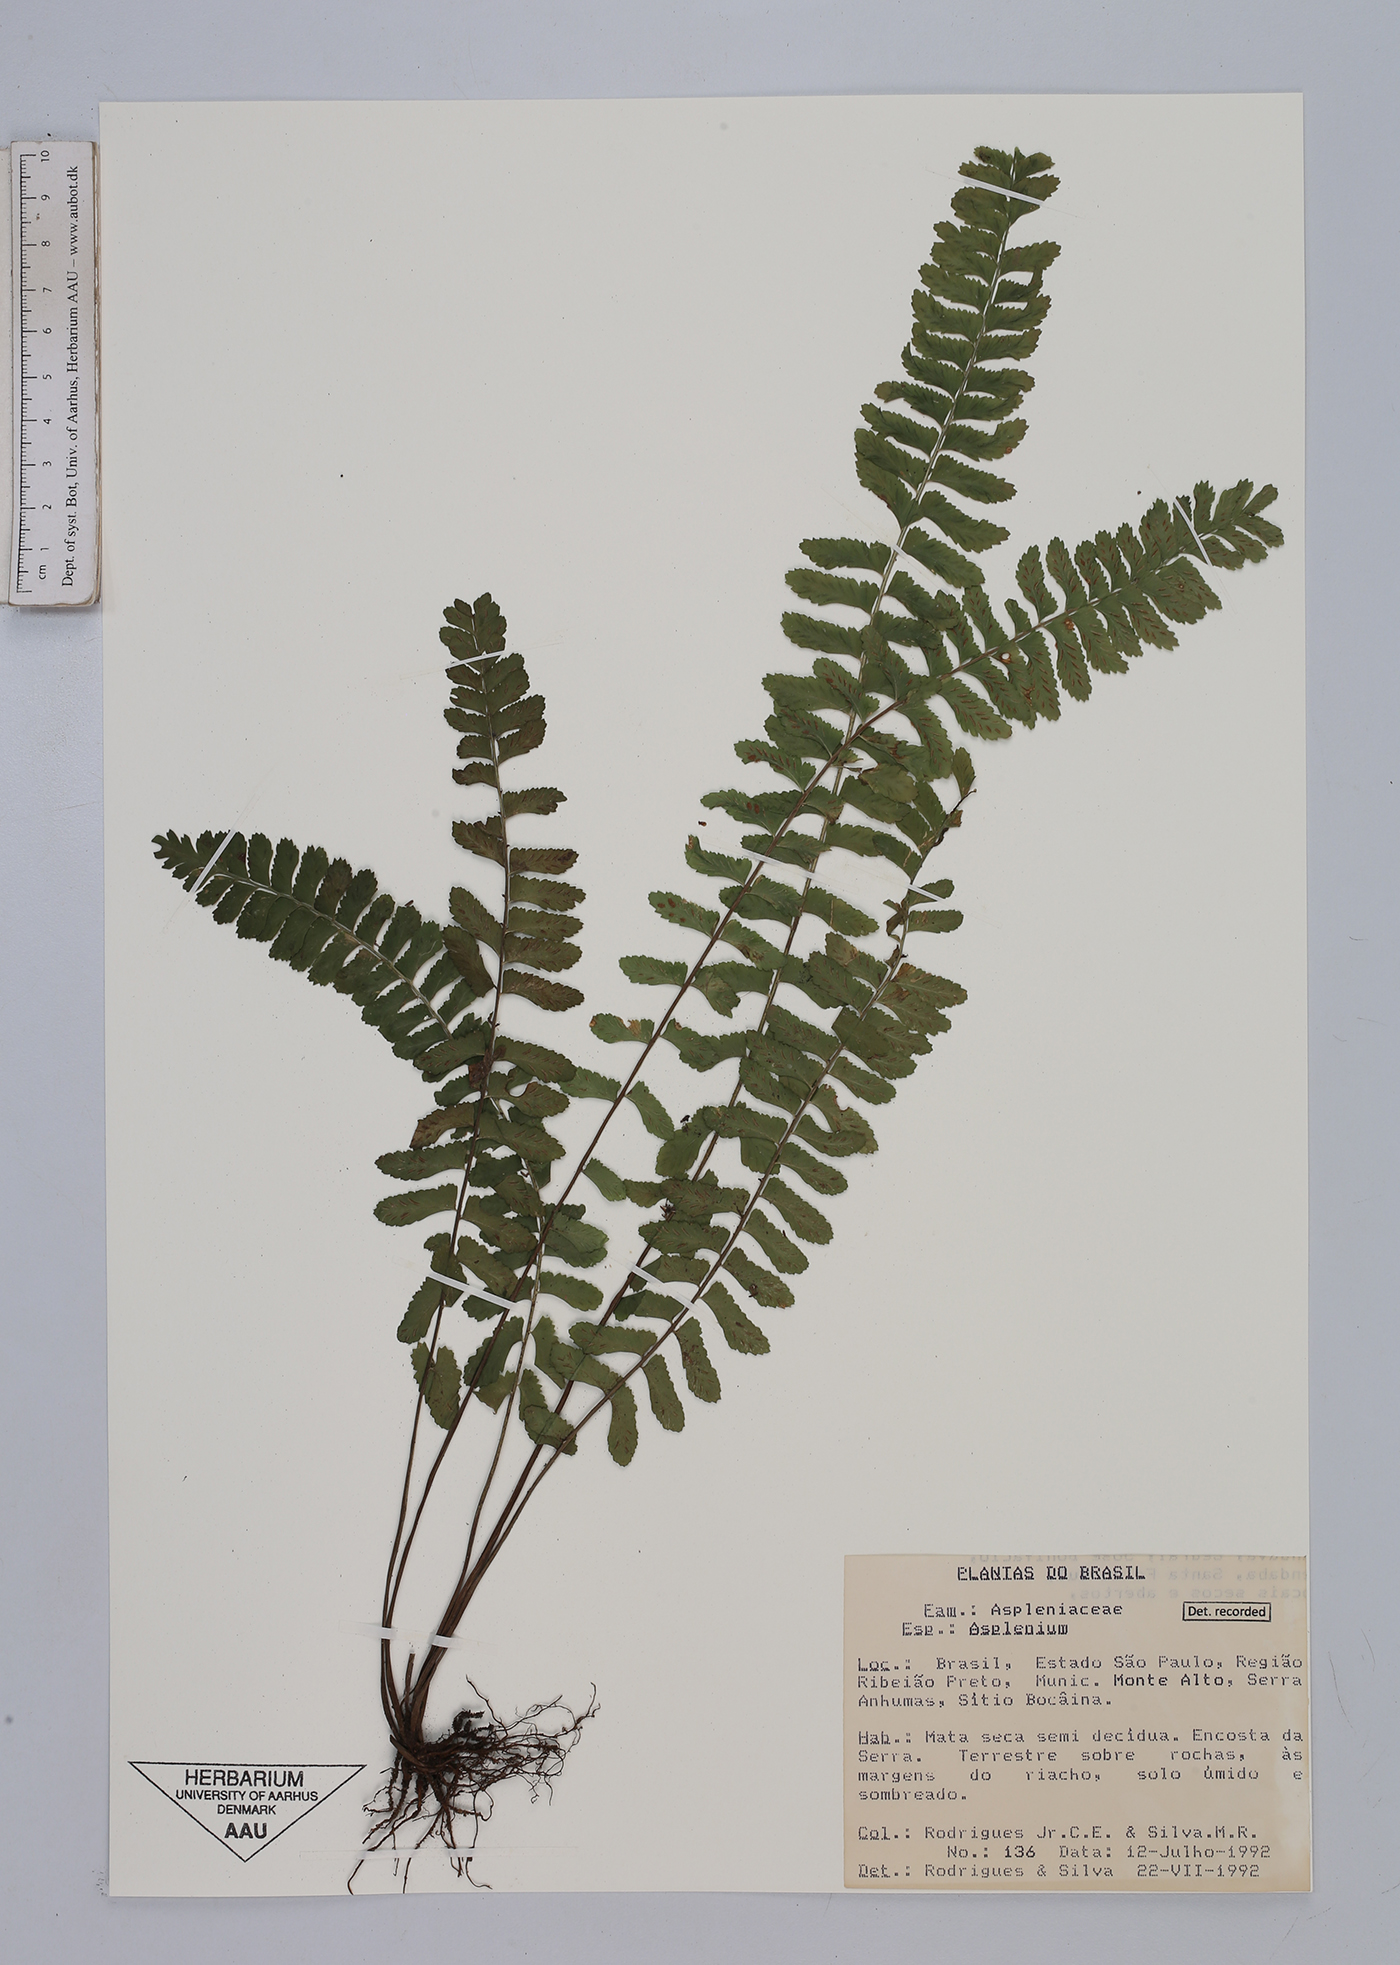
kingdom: Plantae
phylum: Tracheophyta
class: Polypodiopsida
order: Polypodiales
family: Aspleniaceae
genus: Asplenium
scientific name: Asplenium
